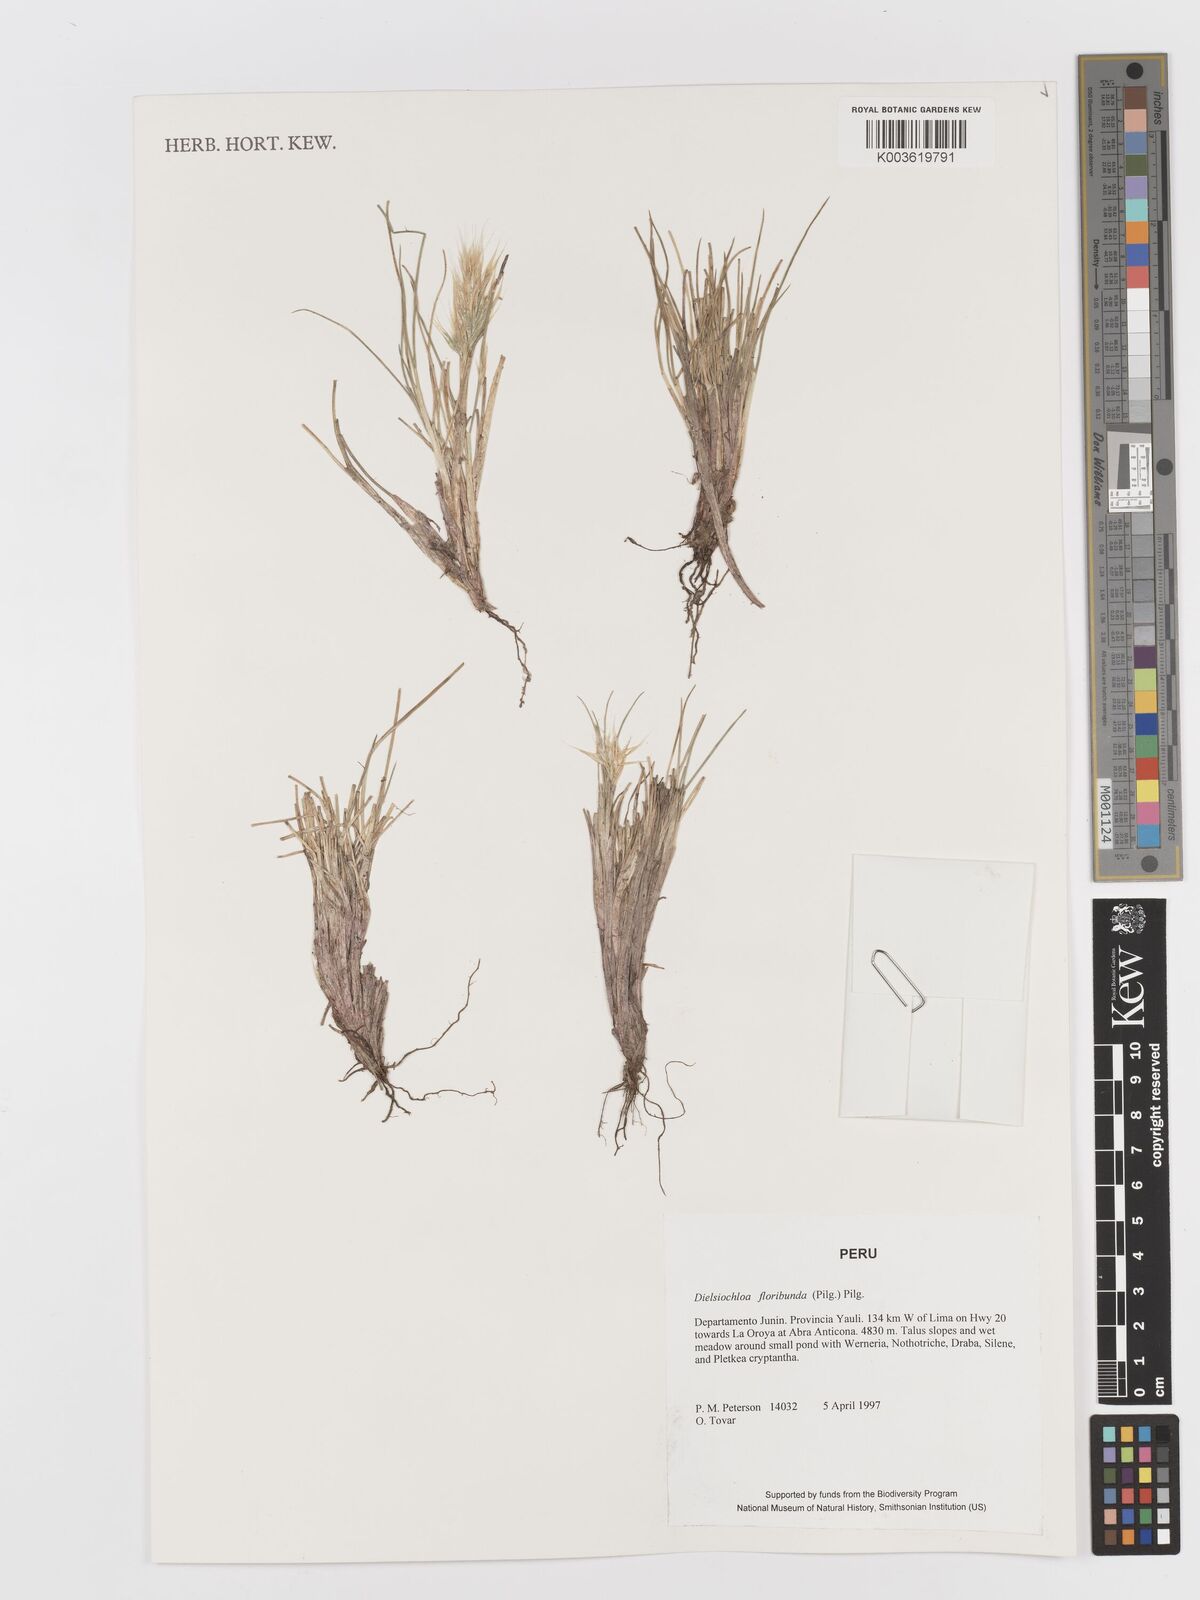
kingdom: Plantae
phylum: Tracheophyta
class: Liliopsida
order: Poales
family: Poaceae
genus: Festuca
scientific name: Festuca floribunda
